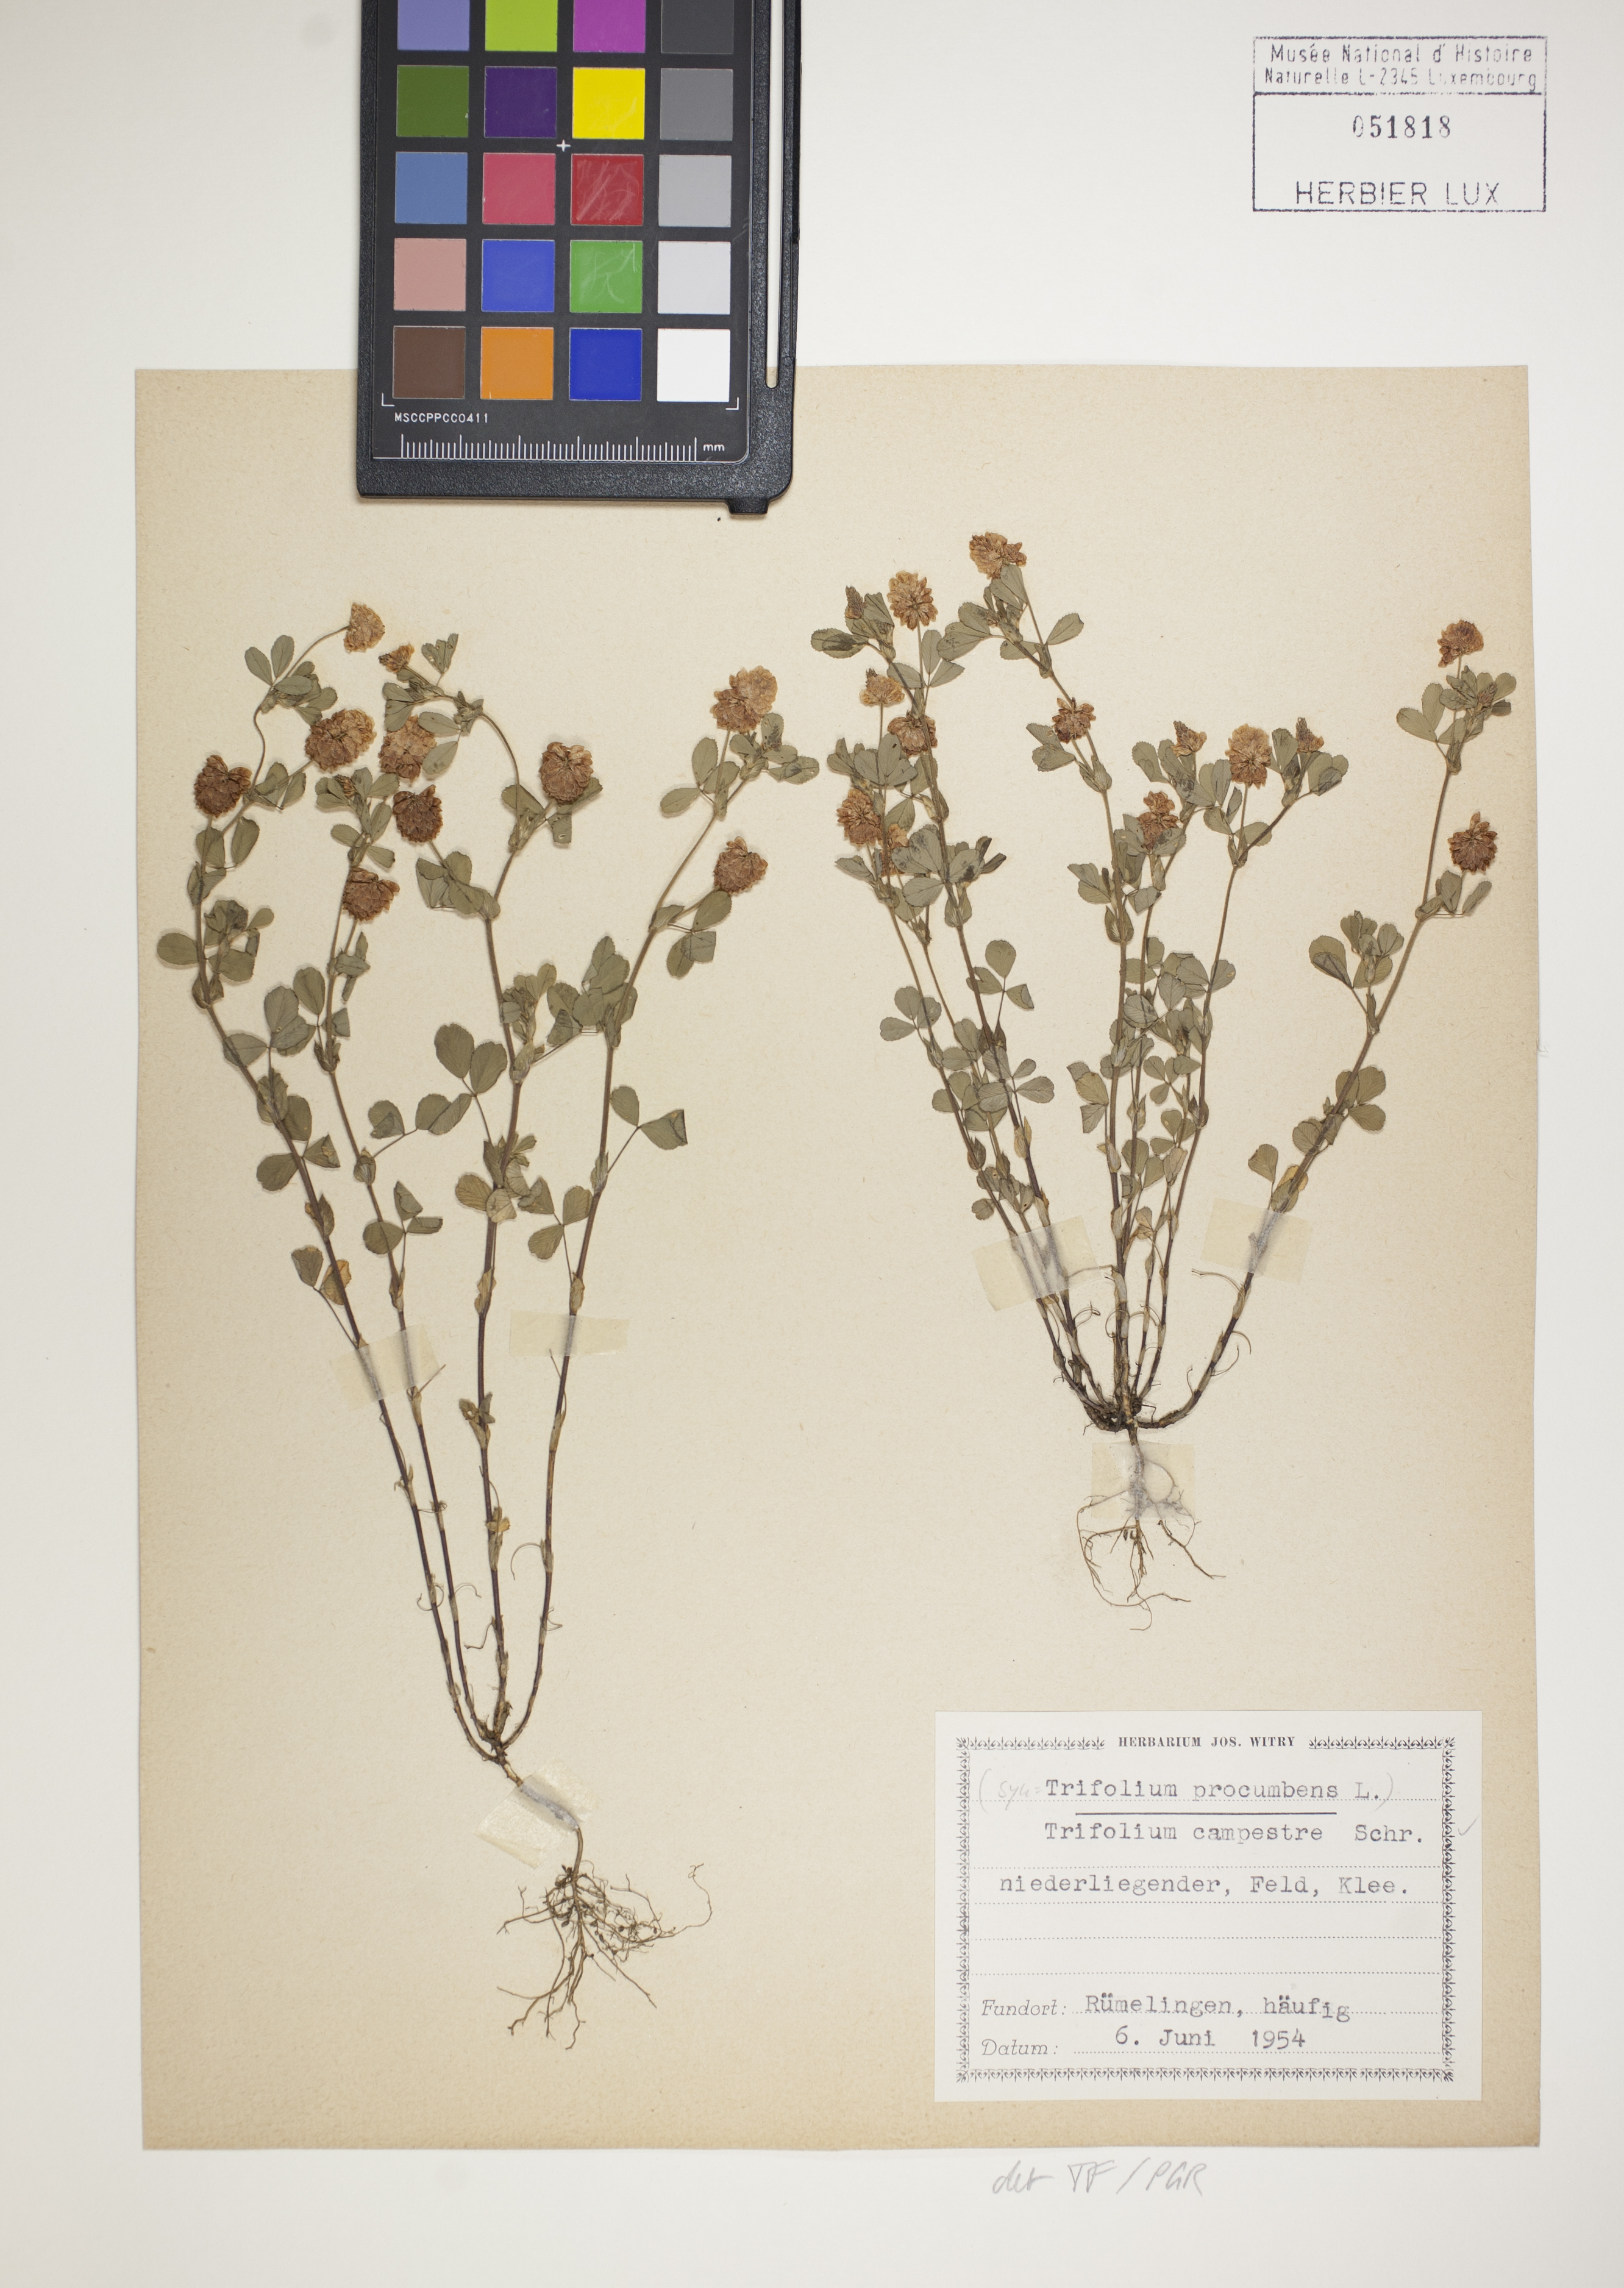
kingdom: Plantae
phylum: Tracheophyta
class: Magnoliopsida
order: Fabales
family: Fabaceae
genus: Trifolium
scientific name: Trifolium campestre
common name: Field clover
